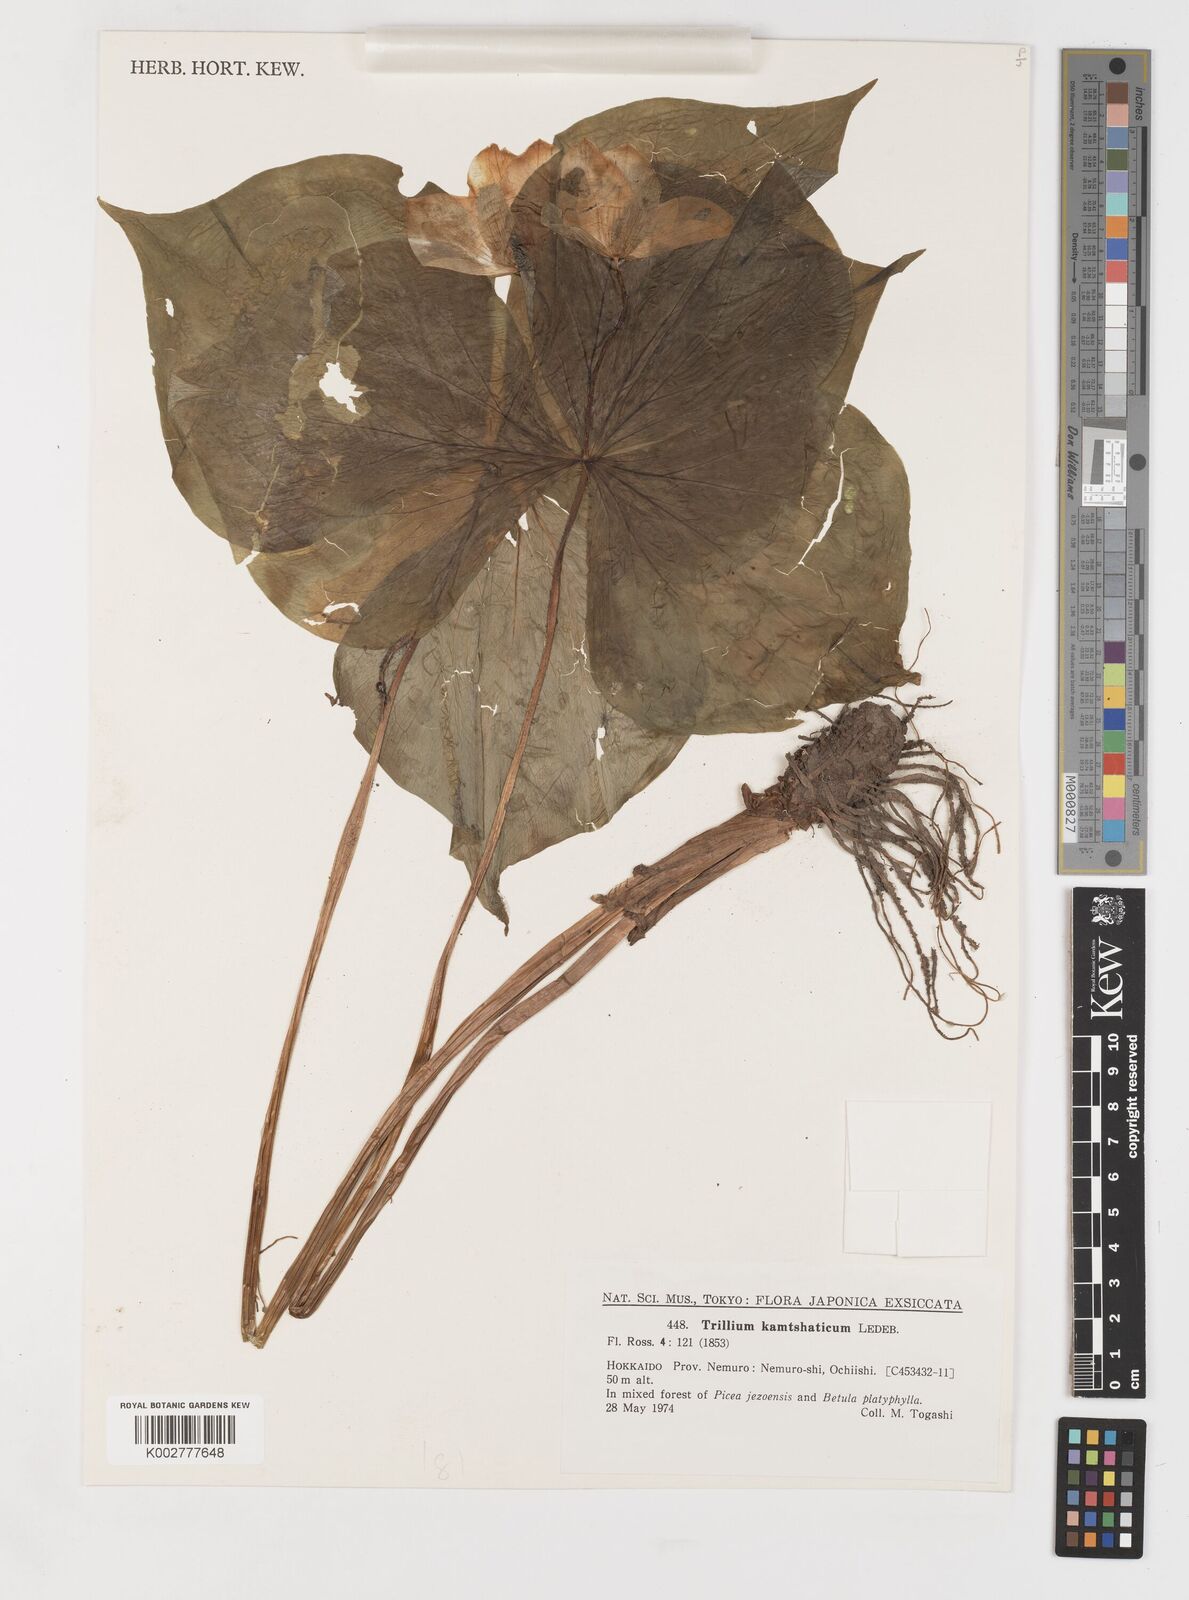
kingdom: Plantae
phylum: Tracheophyta
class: Liliopsida
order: Liliales
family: Melanthiaceae
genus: Trillium
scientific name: Trillium camschatcense
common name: Kamchatka trillium
